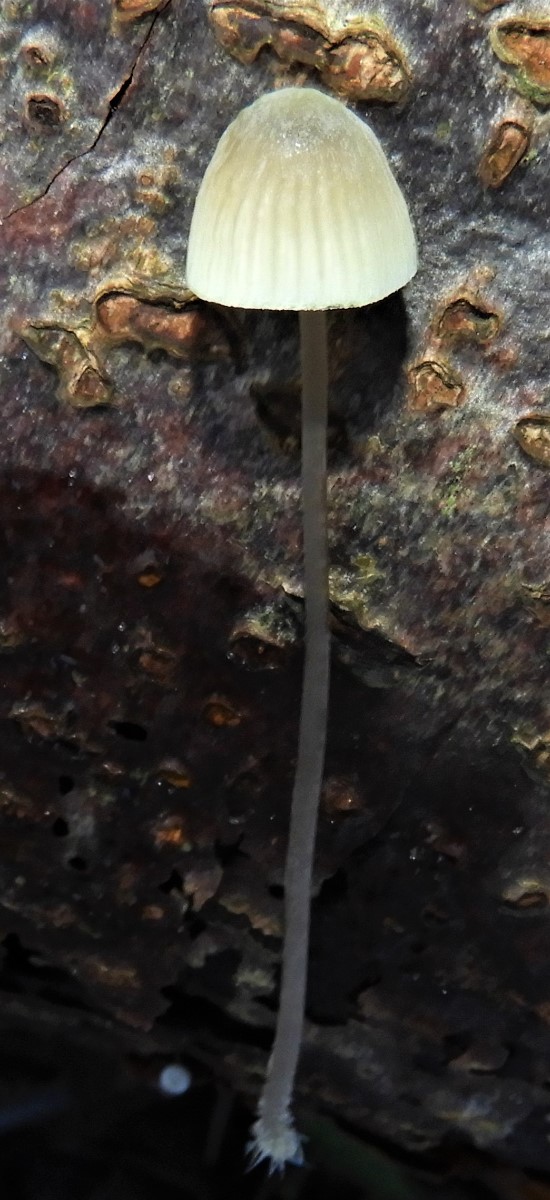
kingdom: Fungi
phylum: Basidiomycota
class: Agaricomycetes
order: Agaricales
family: Mycenaceae
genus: Mycena
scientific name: Mycena arcangeliana
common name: oliven-huesvamp
